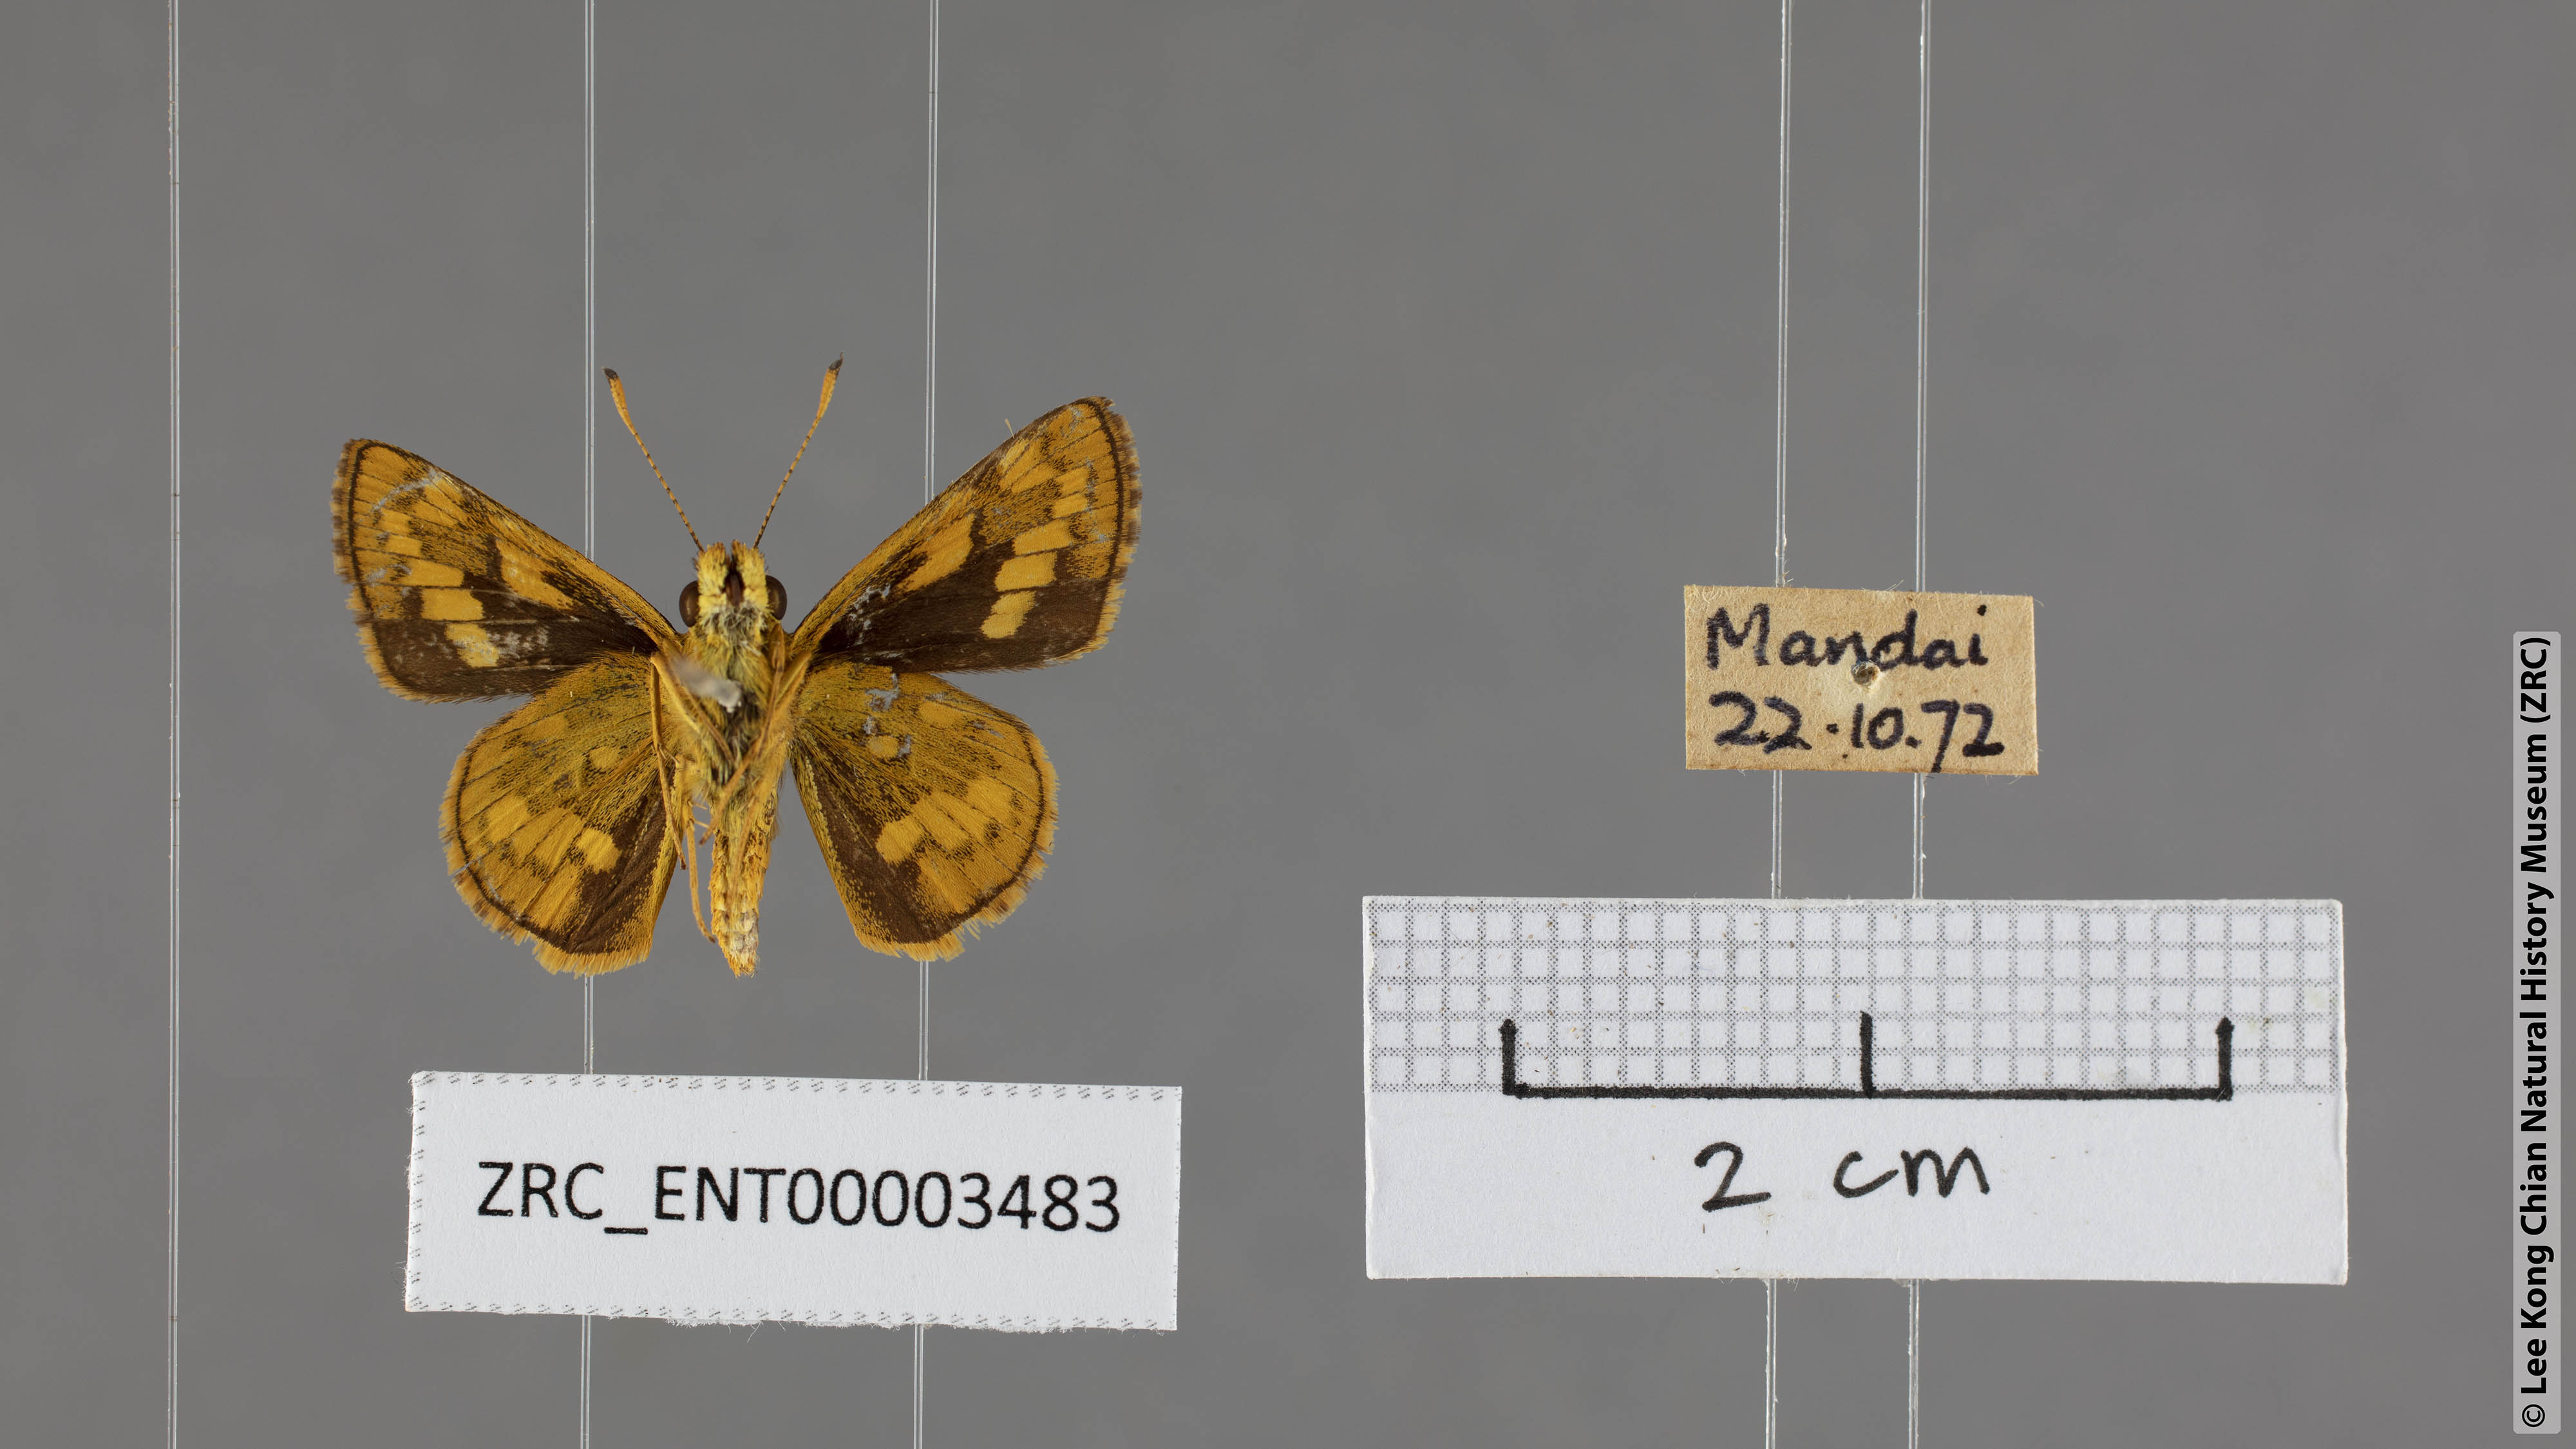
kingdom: Animalia
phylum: Arthropoda
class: Insecta
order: Lepidoptera
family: Hesperiidae
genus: Potanthus
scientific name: Potanthus omaha
